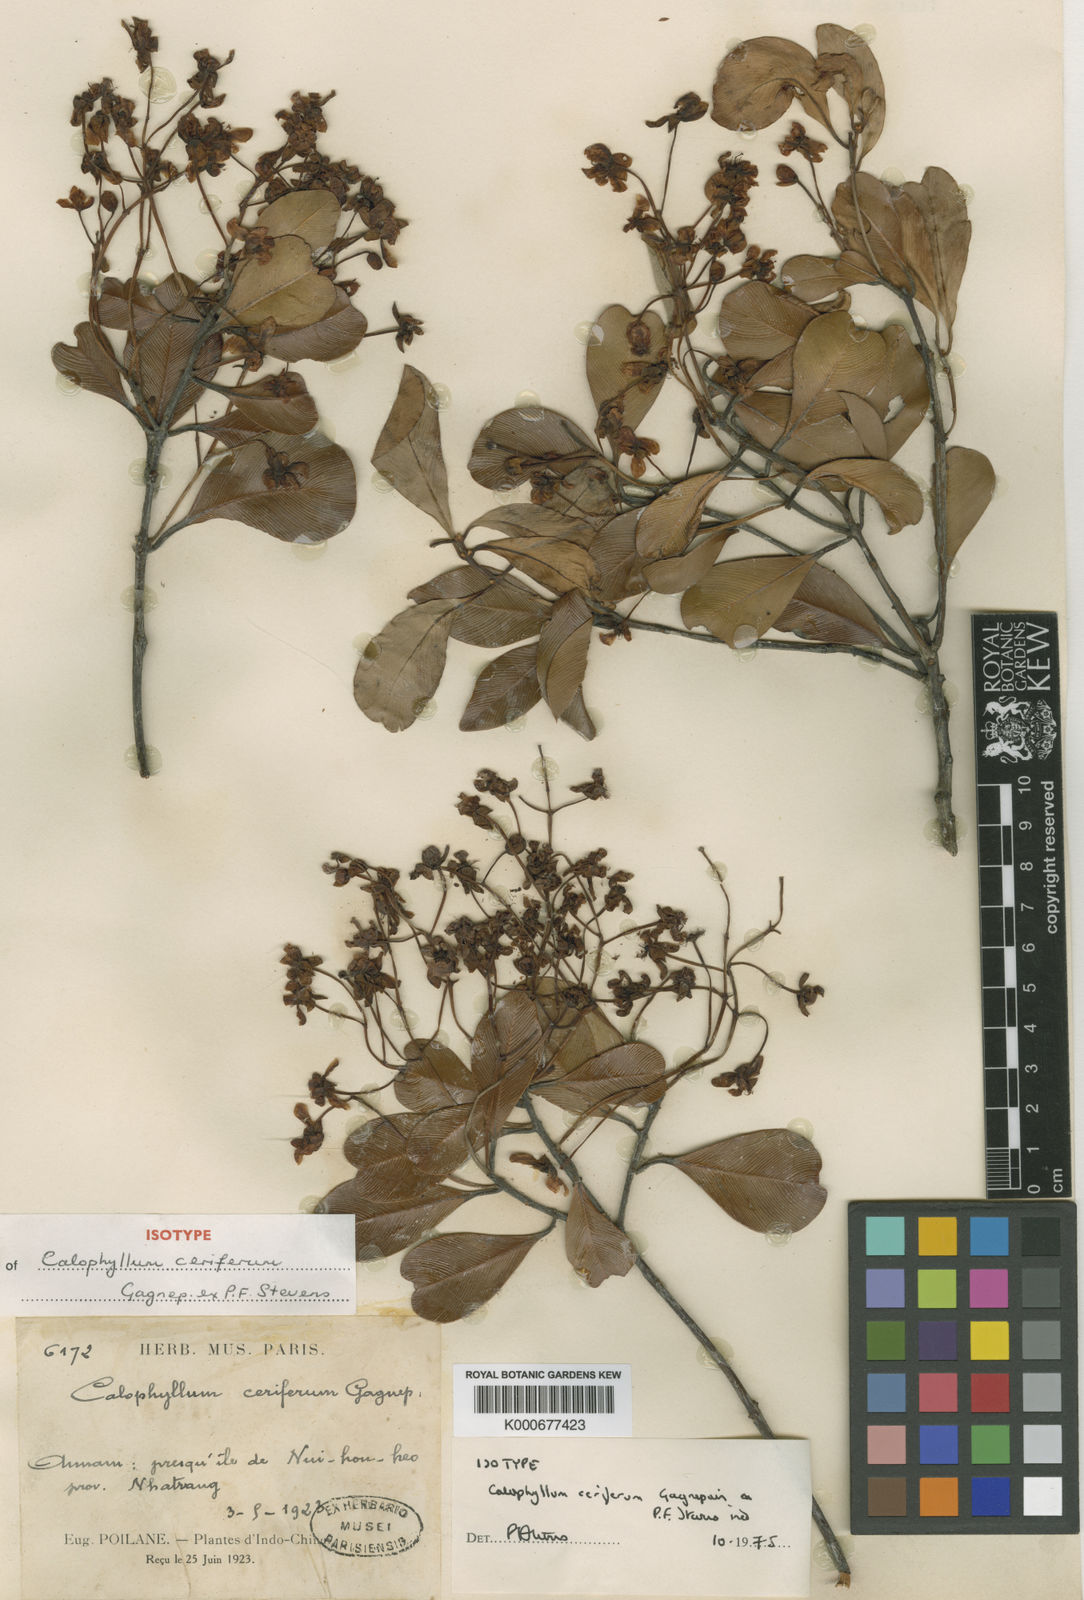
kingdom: Plantae
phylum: Tracheophyta
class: Magnoliopsida
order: Malpighiales
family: Calophyllaceae
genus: Calophyllum
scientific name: Calophyllum ceriferum
